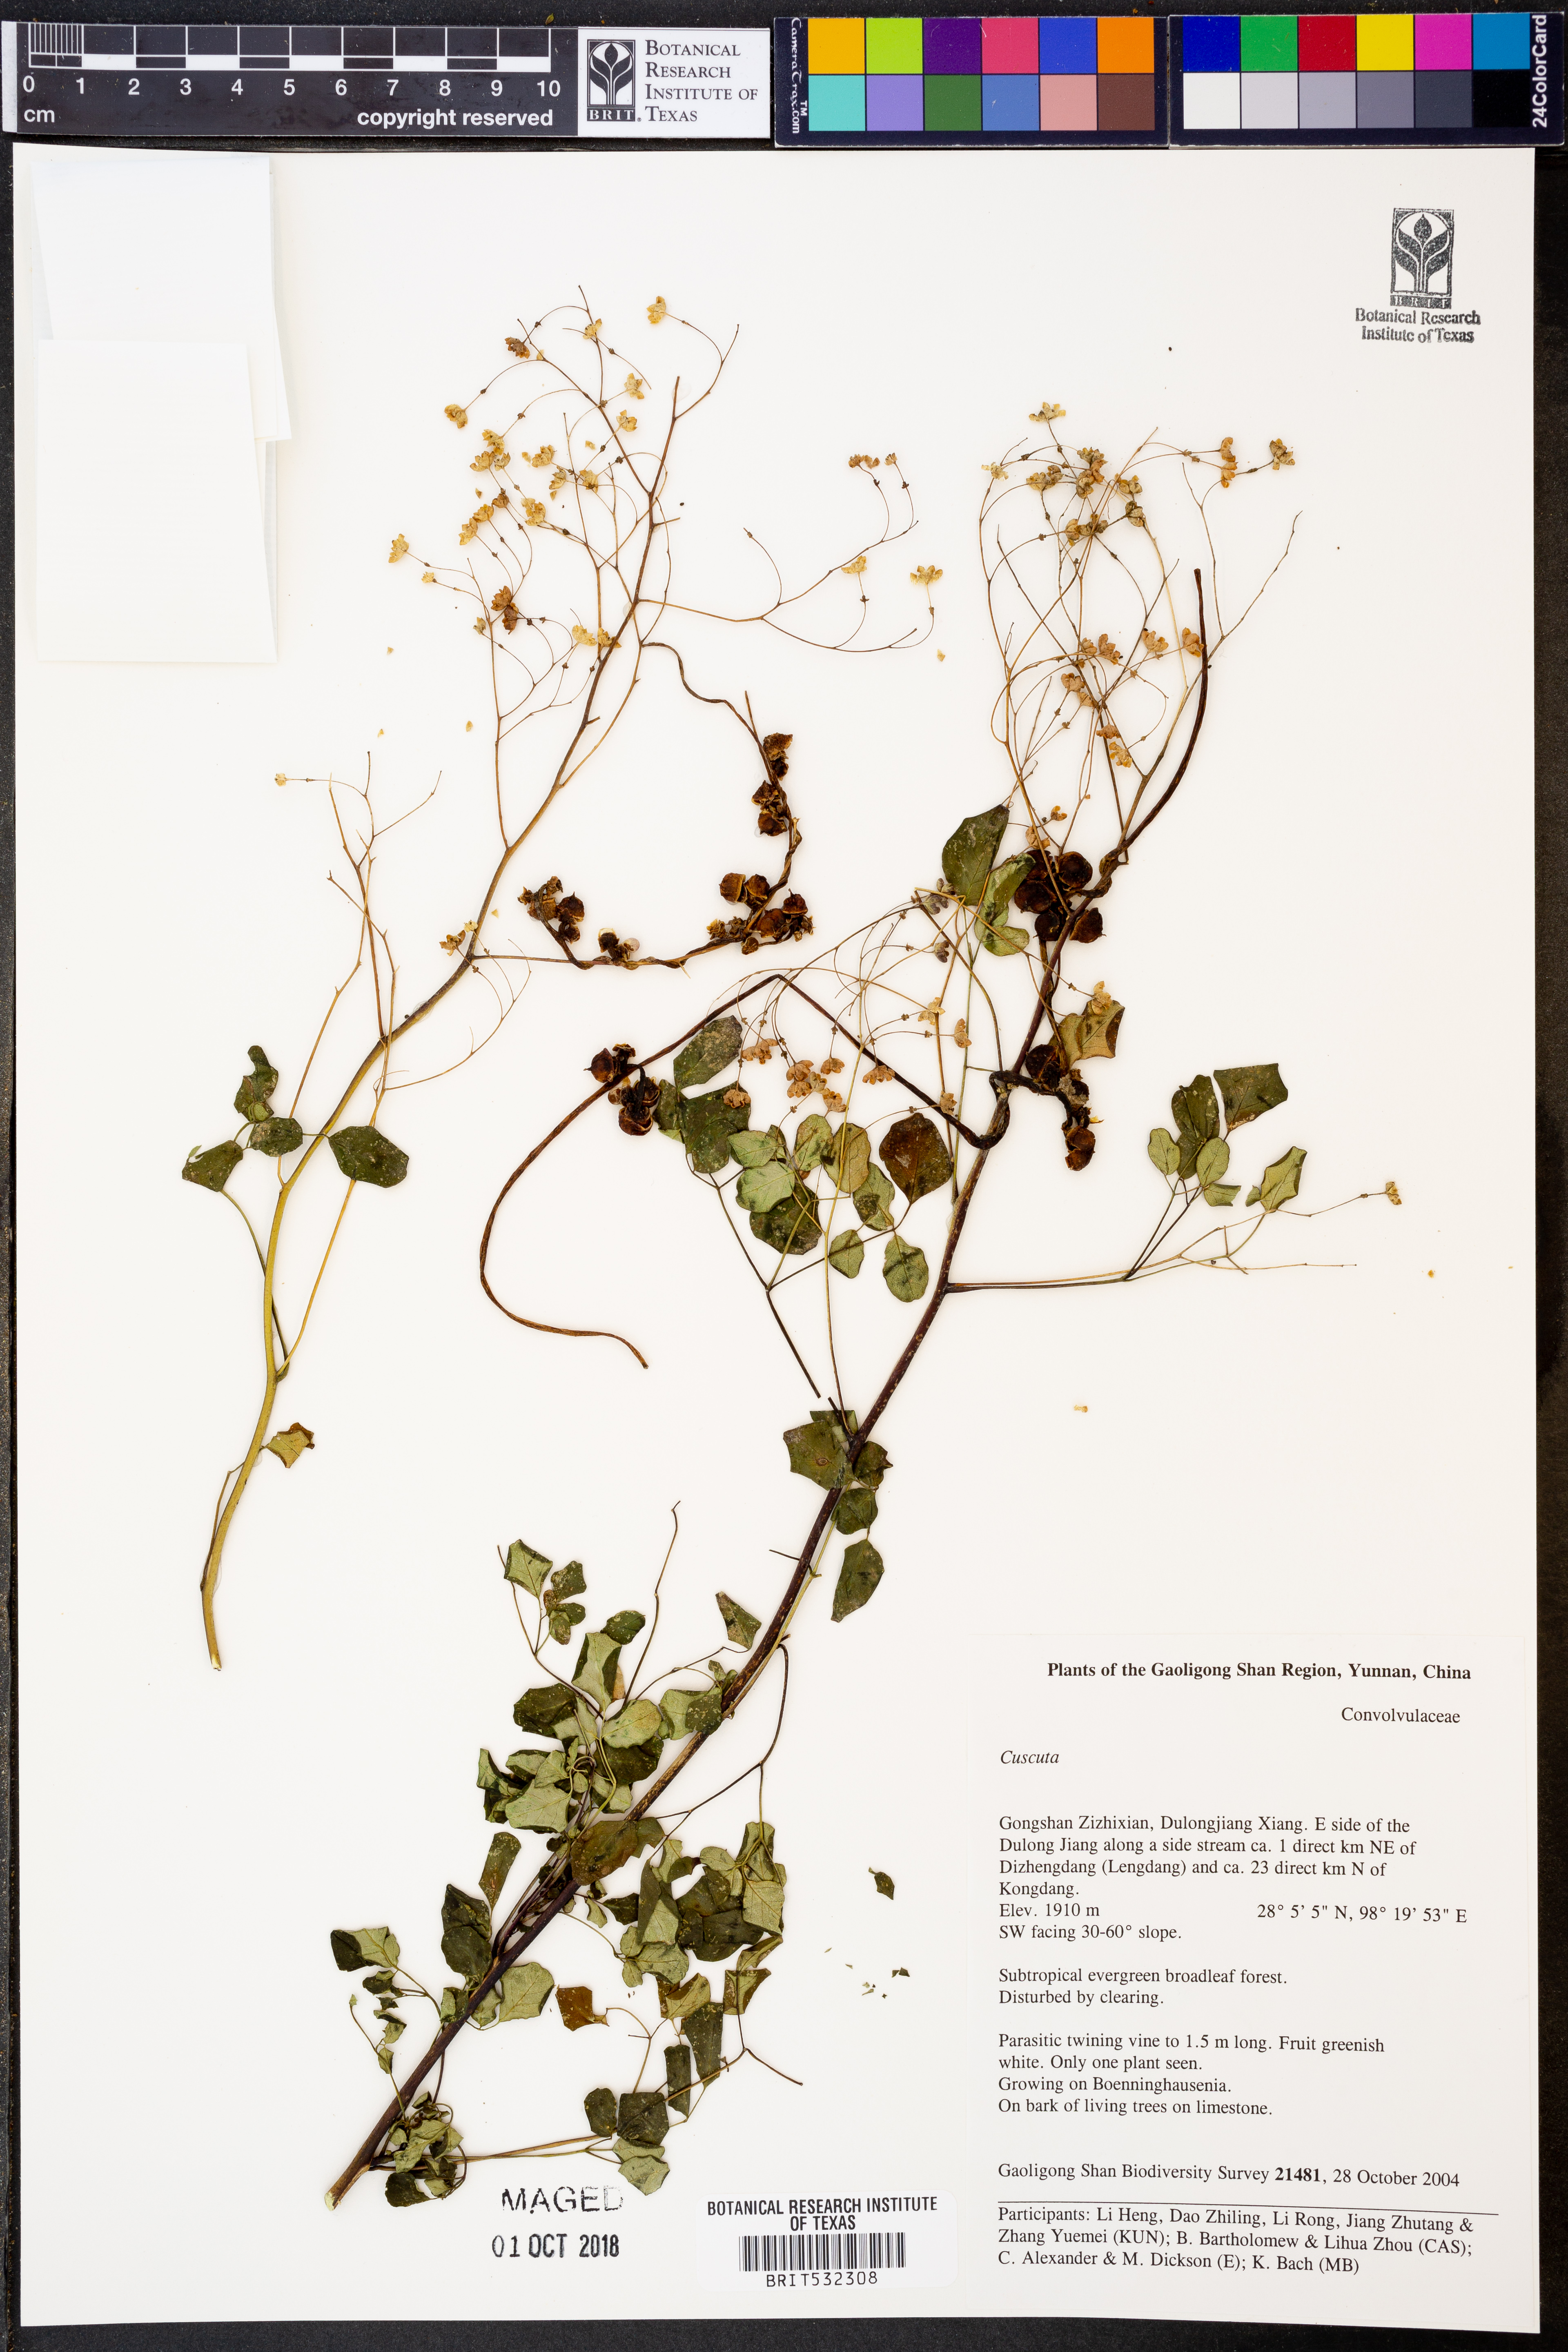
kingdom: Plantae
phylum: Tracheophyta
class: Magnoliopsida
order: Solanales
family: Convolvulaceae
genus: Cuscuta
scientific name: Cuscuta
